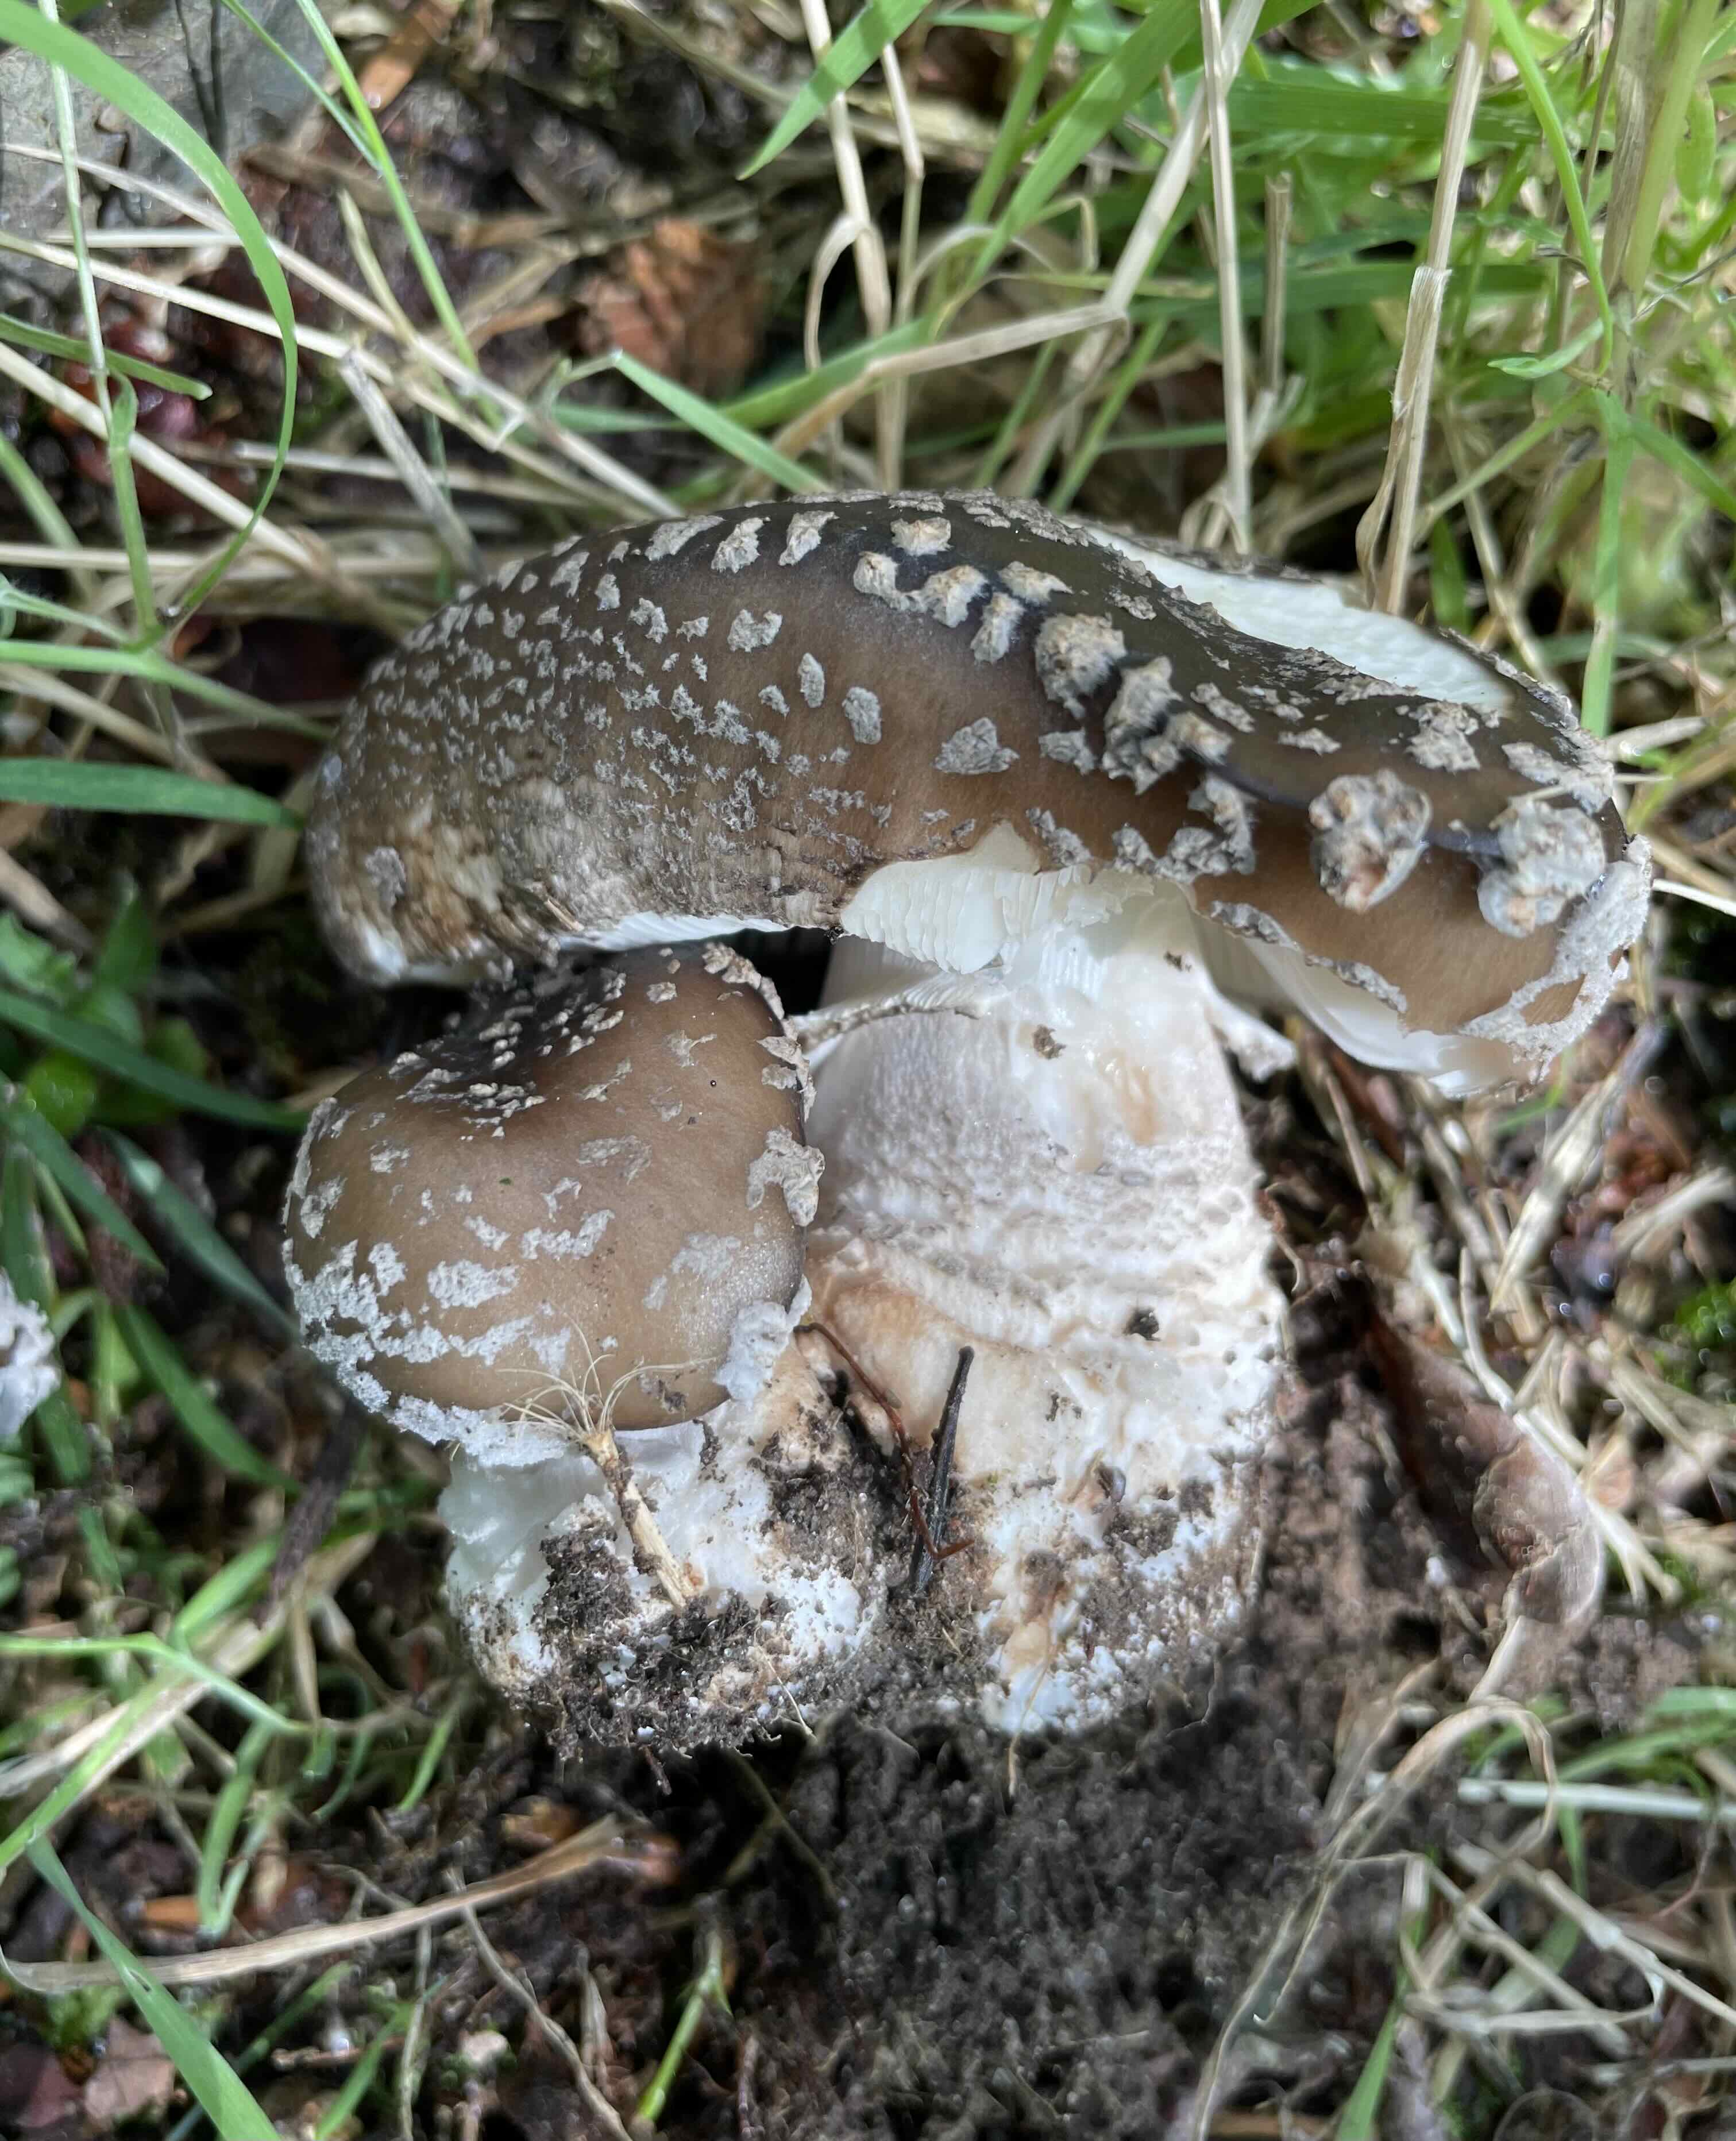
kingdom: Fungi
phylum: Basidiomycota
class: Agaricomycetes
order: Agaricales
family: Amanitaceae
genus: Amanita
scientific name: Amanita
